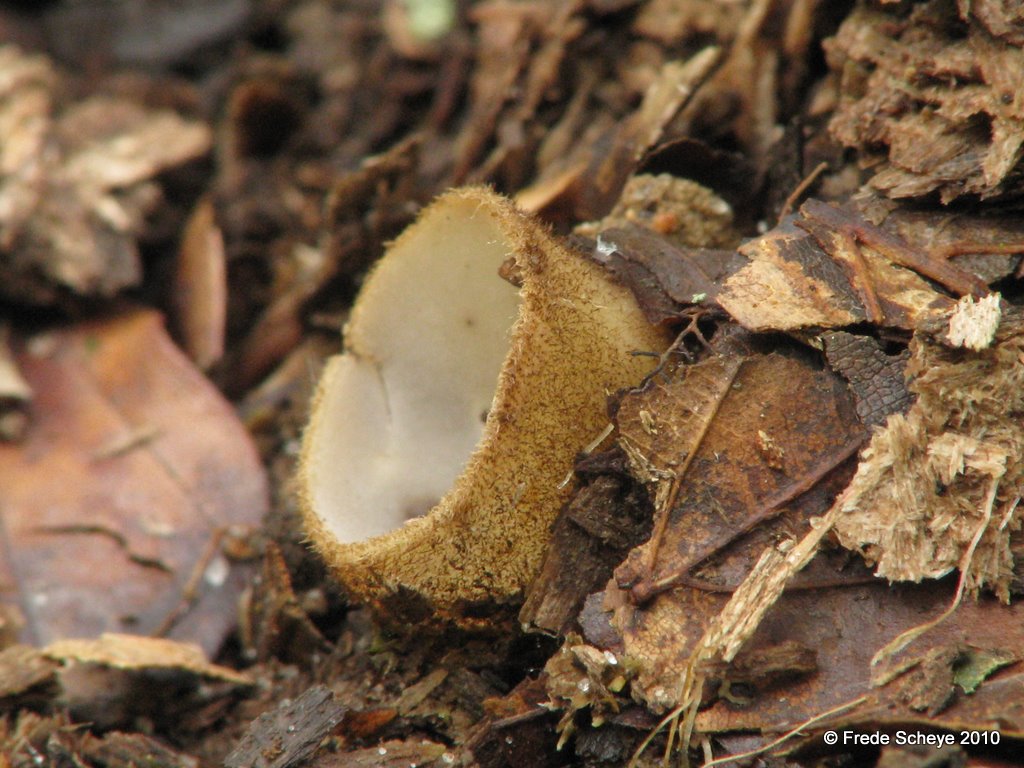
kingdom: Fungi
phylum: Ascomycota
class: Pezizomycetes
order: Pezizales
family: Pyronemataceae
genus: Humaria
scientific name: Humaria hemisphaerica
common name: halvkugleformet børstebæger
